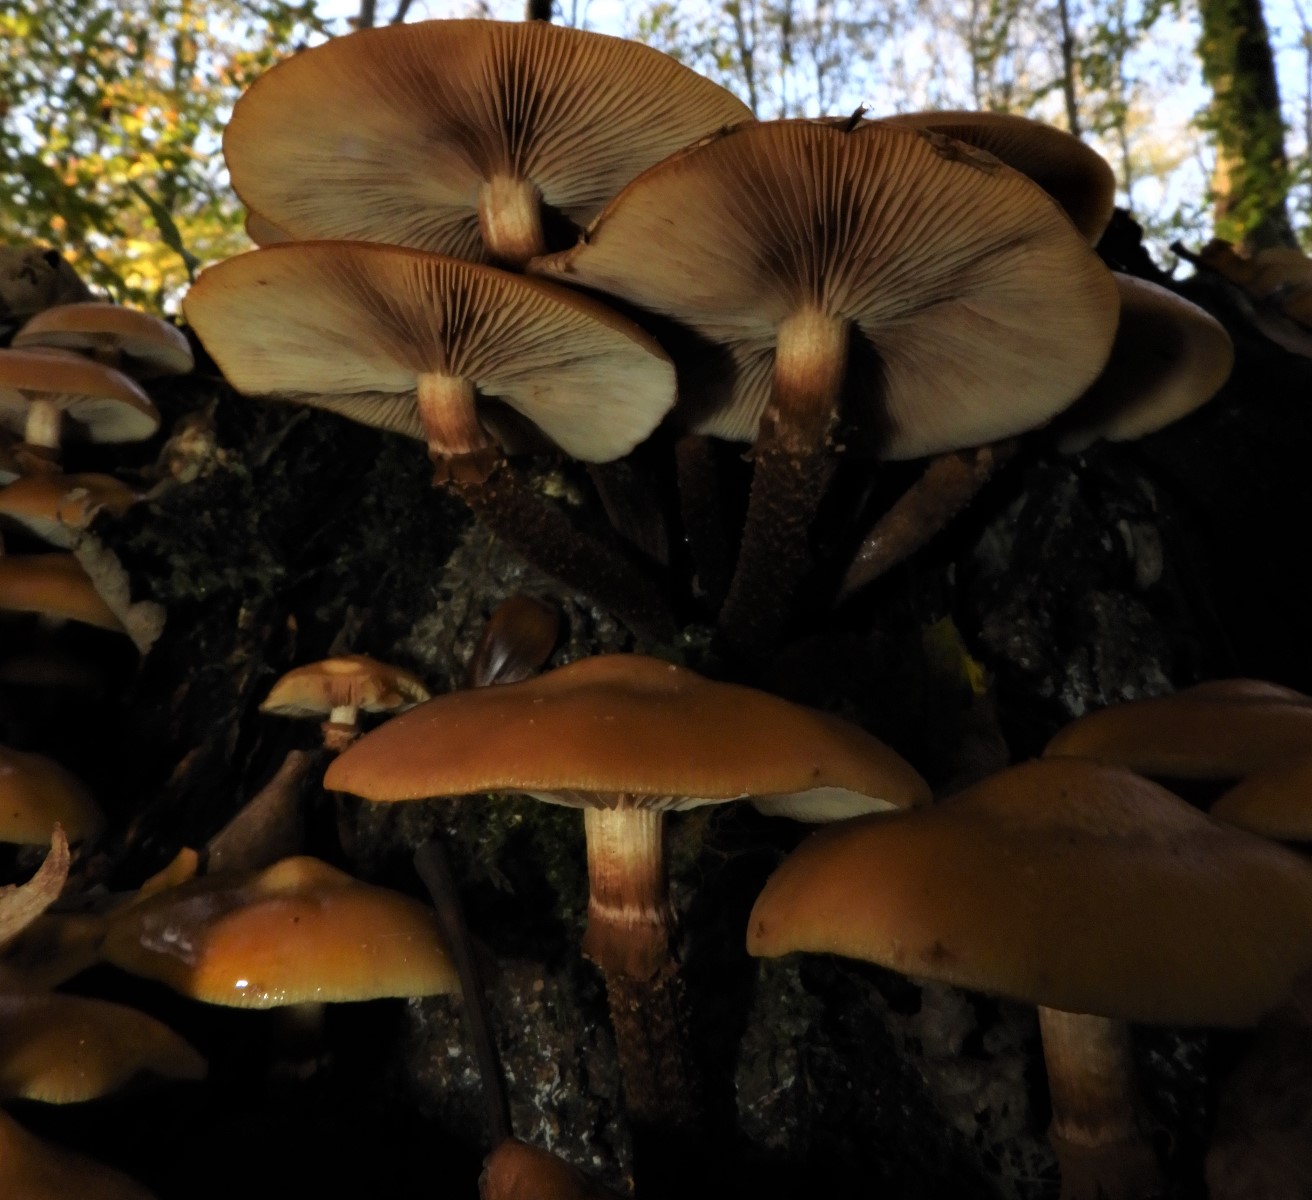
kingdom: Fungi
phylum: Basidiomycota
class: Agaricomycetes
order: Agaricales
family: Strophariaceae
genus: Kuehneromyces
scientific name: Kuehneromyces mutabilis
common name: foranderlig skælhat
